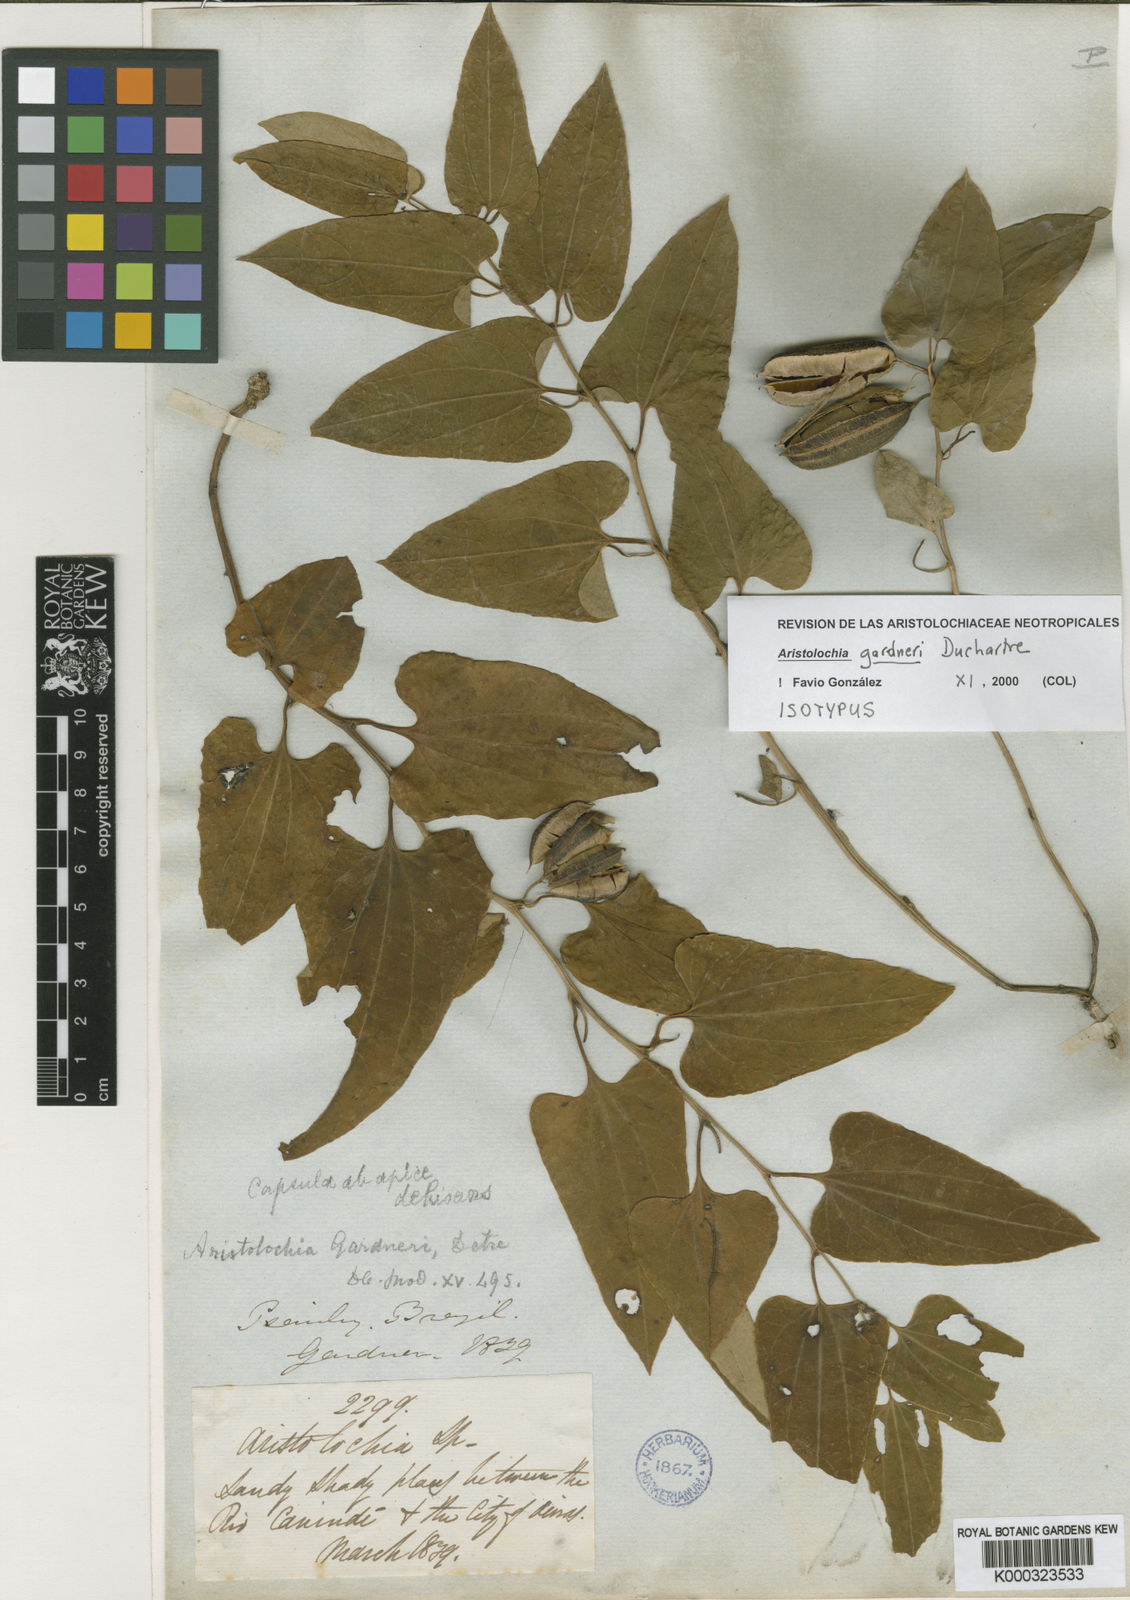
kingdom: Plantae
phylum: Tracheophyta
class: Magnoliopsida
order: Piperales
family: Aristolochiaceae
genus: Aristolochia
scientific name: Aristolochia gardneri
